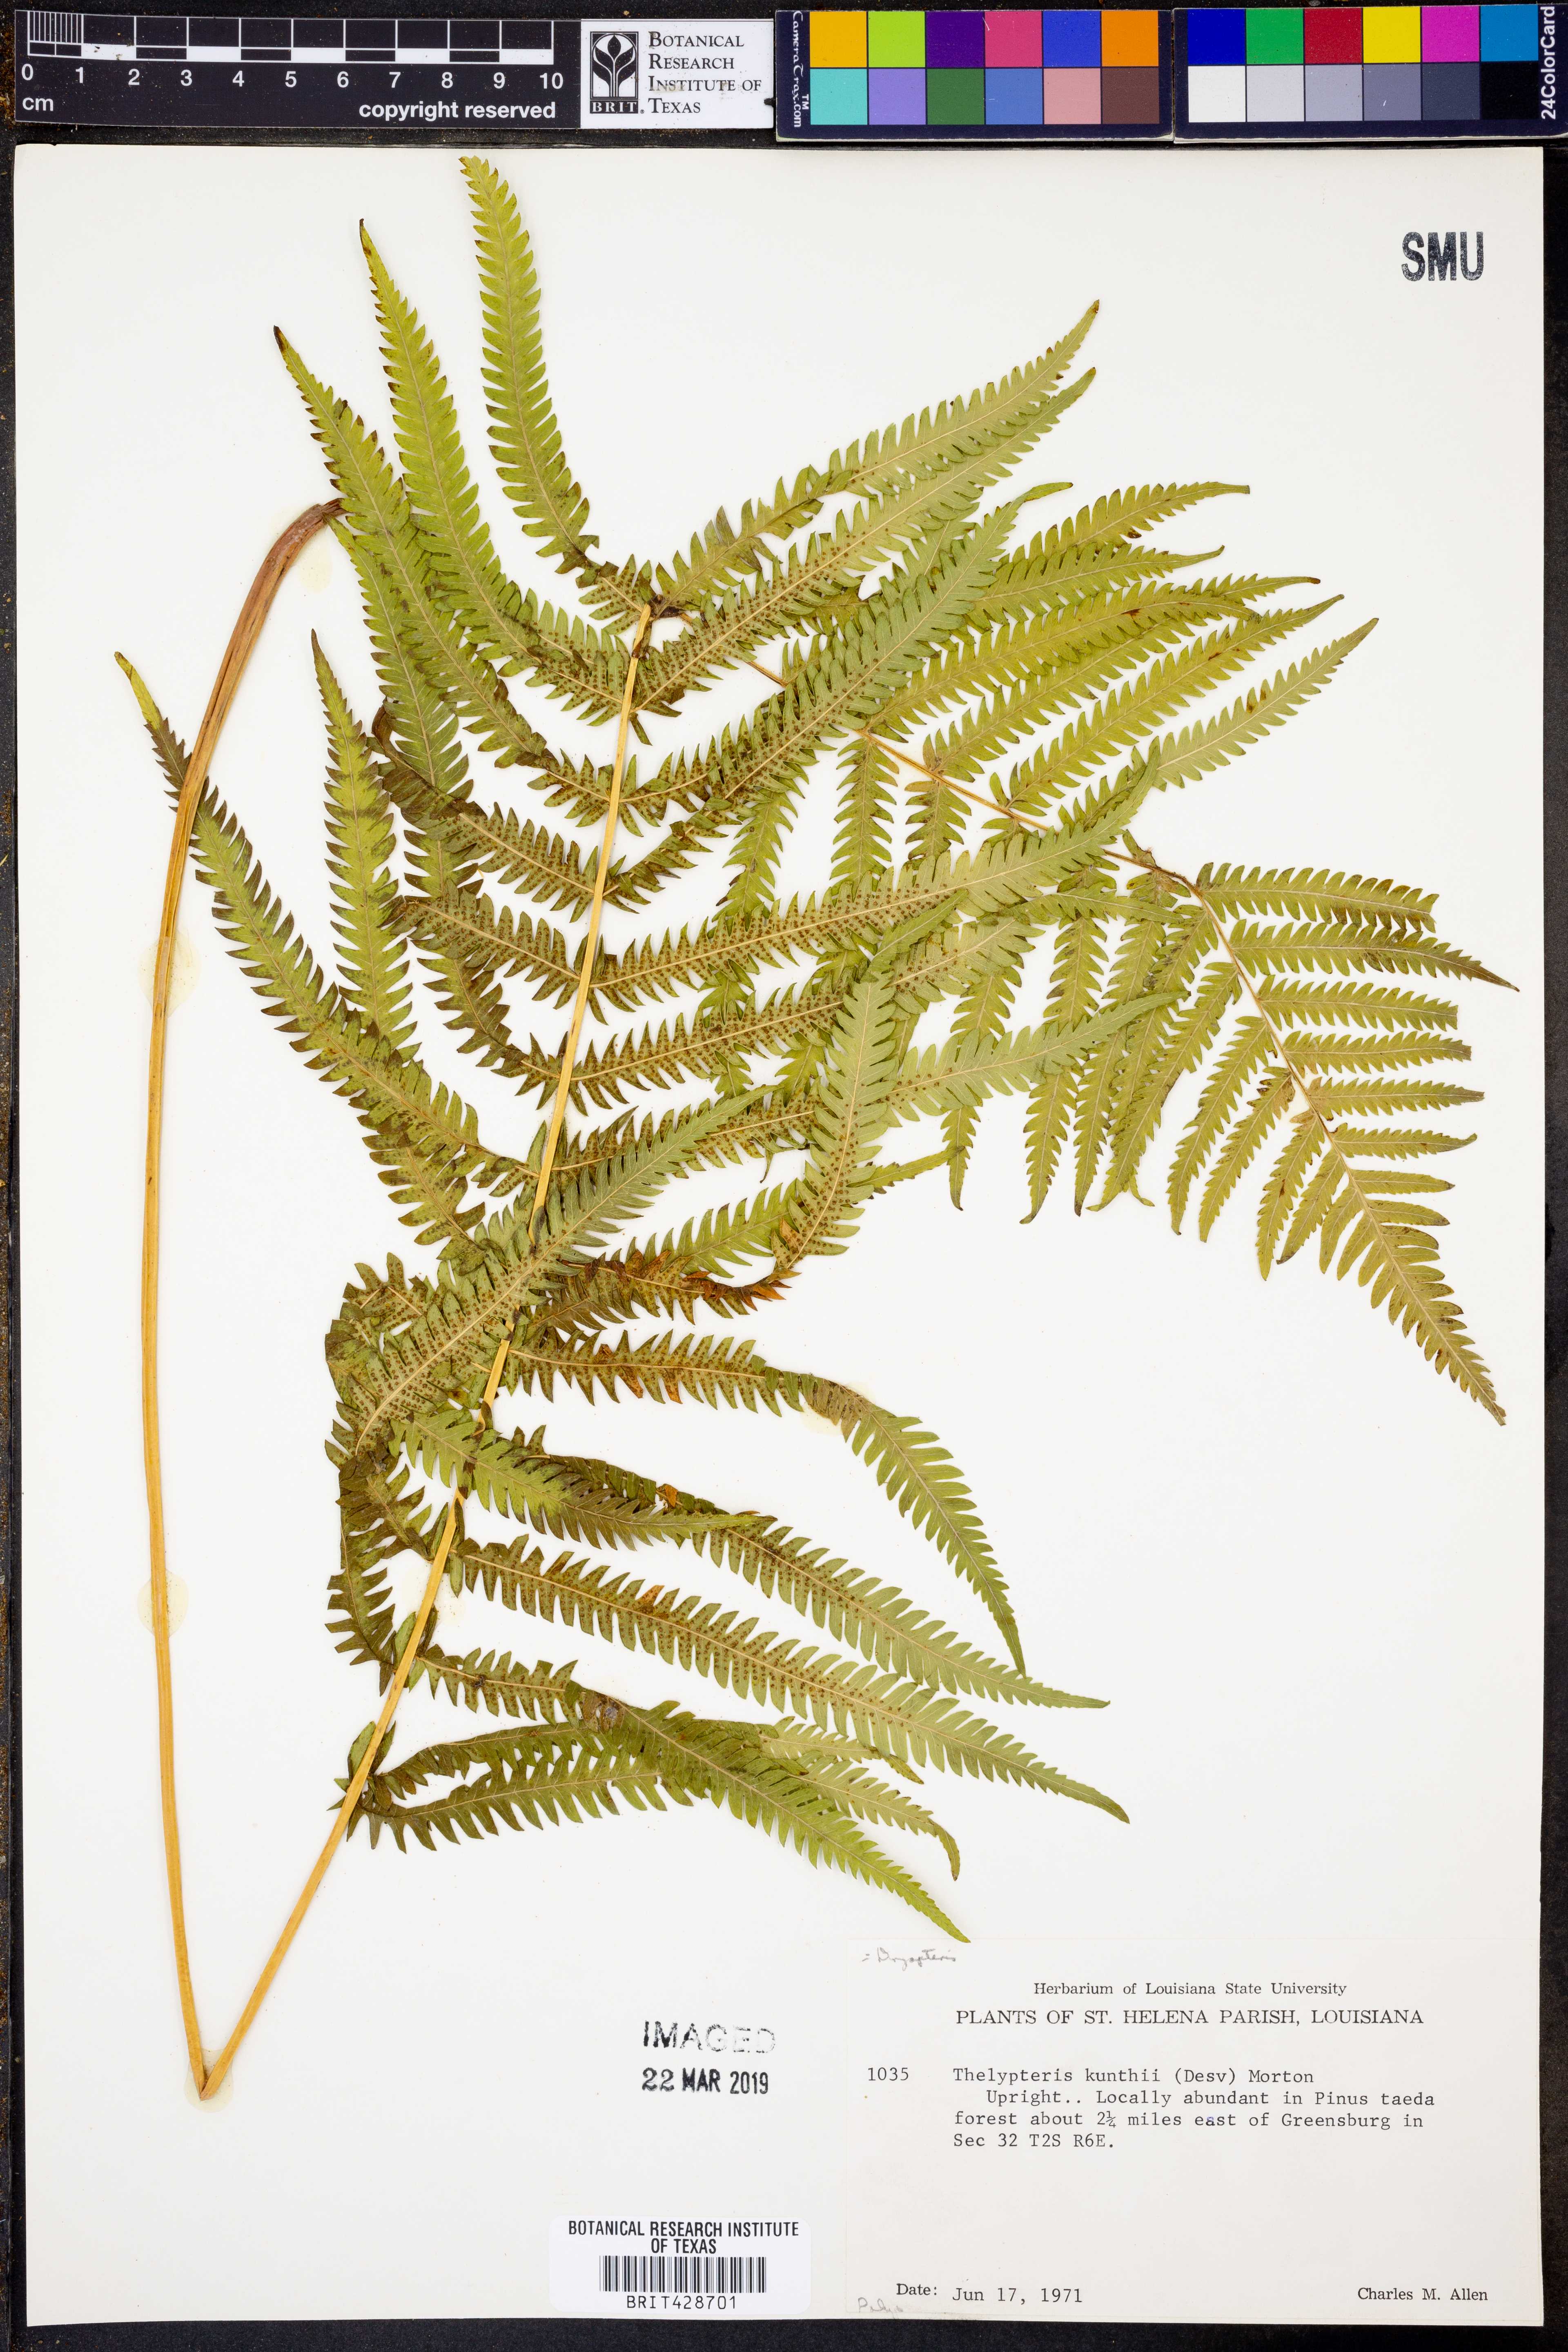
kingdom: Plantae
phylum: Tracheophyta
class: Polypodiopsida
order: Polypodiales
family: Thelypteridaceae
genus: Pelazoneuron
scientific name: Pelazoneuron kunthii
